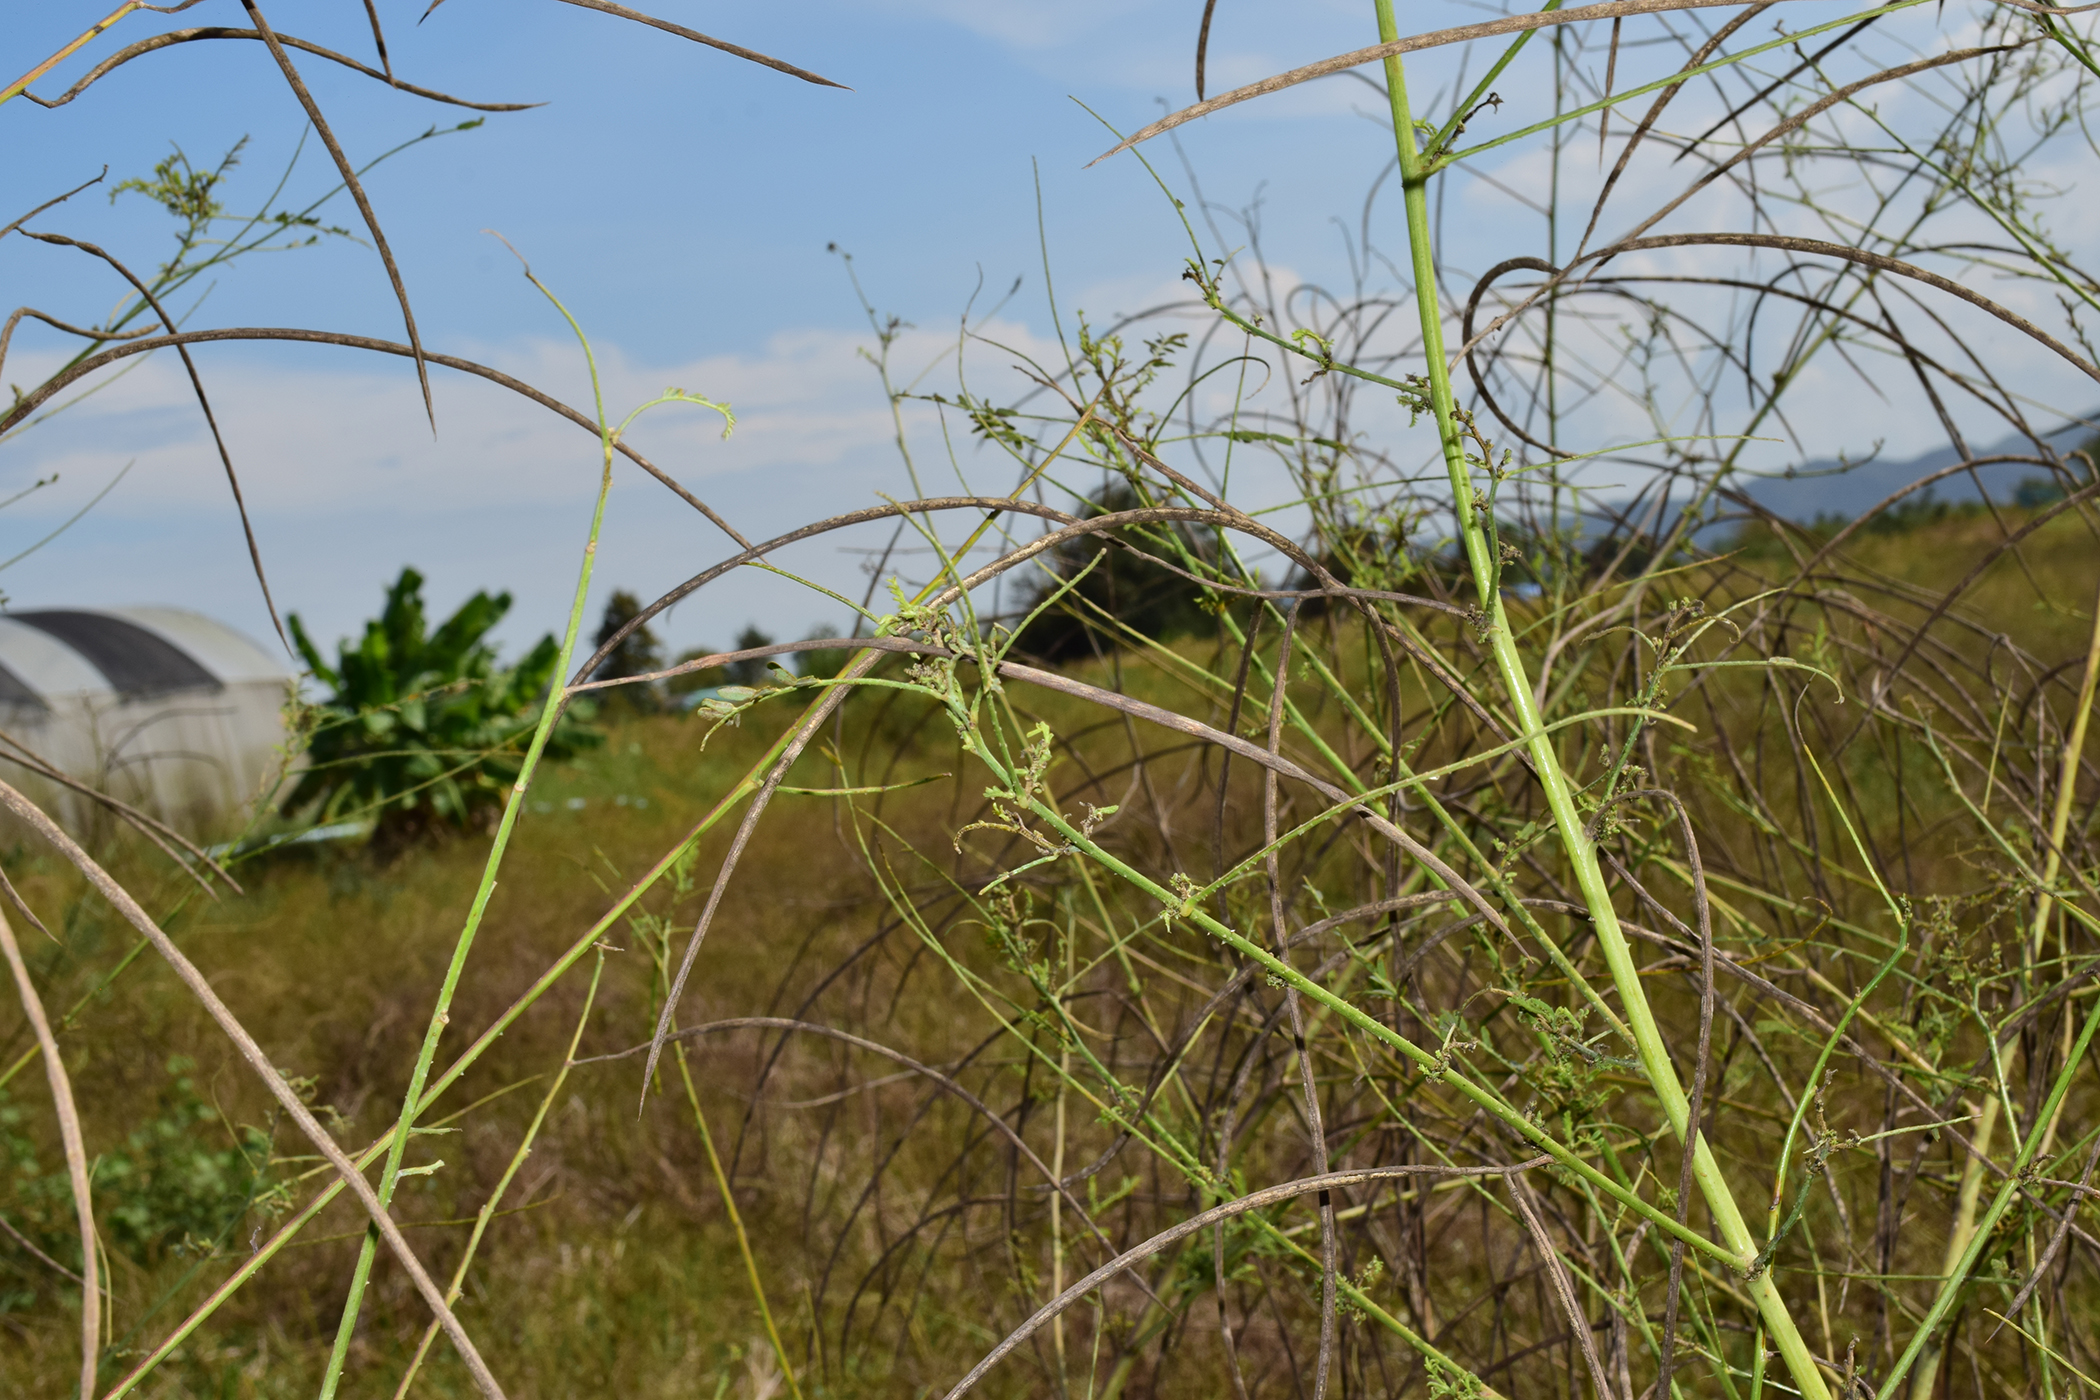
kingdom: Plantae
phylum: Tracheophyta
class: Magnoliopsida
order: Fabales
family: Fabaceae
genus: Sesbania
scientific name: Sesbania bispinosa
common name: Sesbania pea
